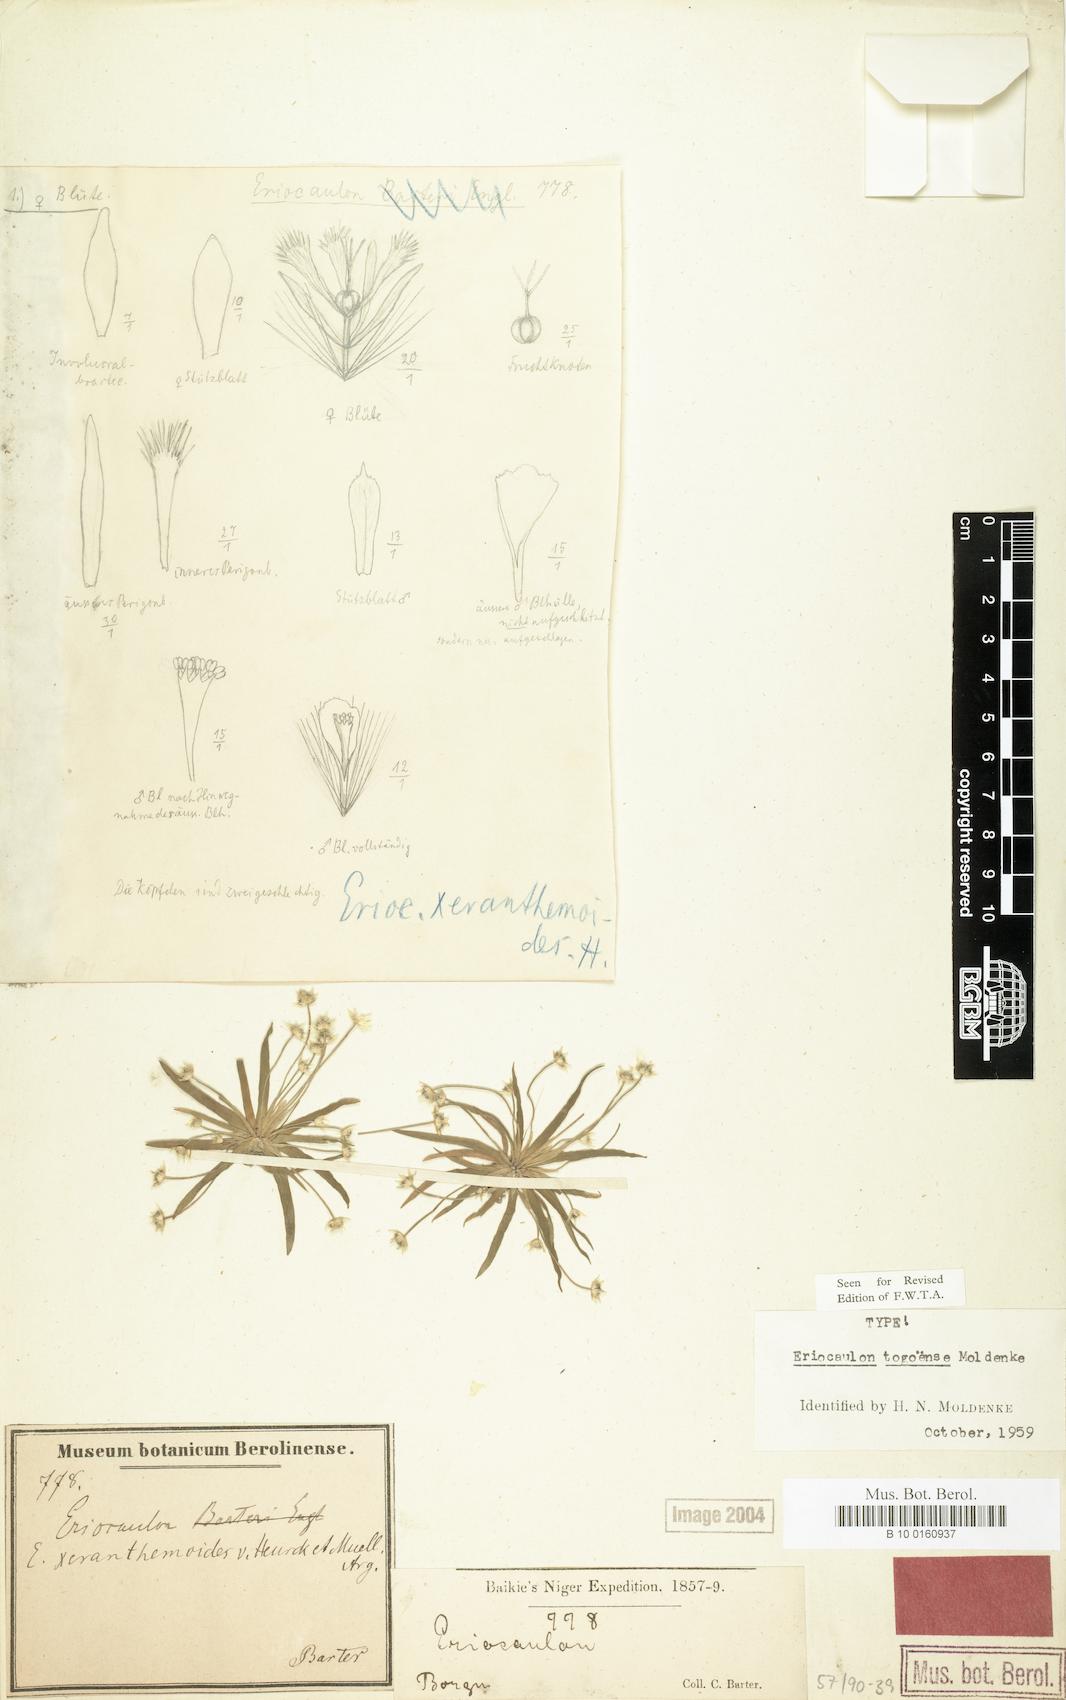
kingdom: Plantae
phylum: Tracheophyta
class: Liliopsida
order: Poales
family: Eriocaulaceae
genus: Eriocaulon
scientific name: Eriocaulon togoense
